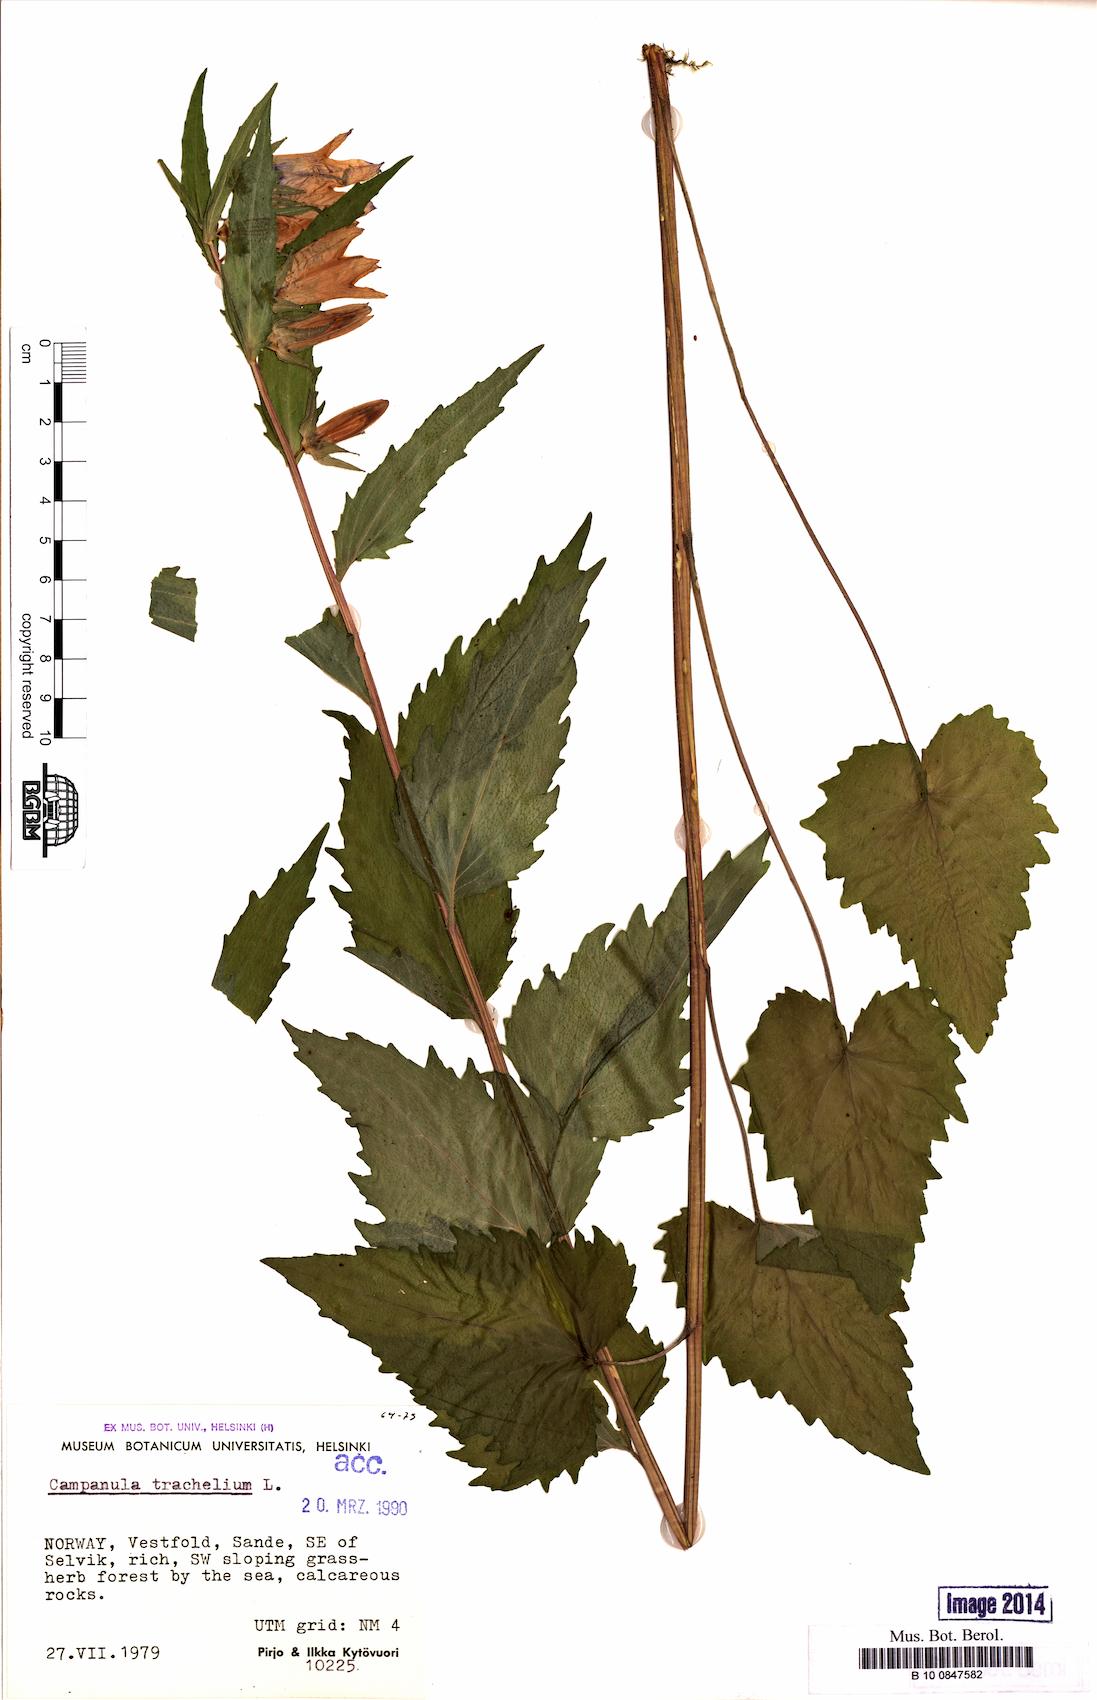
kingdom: Plantae
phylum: Tracheophyta
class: Magnoliopsida
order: Asterales
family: Campanulaceae
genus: Campanula
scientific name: Campanula trachelium
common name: Nettle-leaved bellflower
